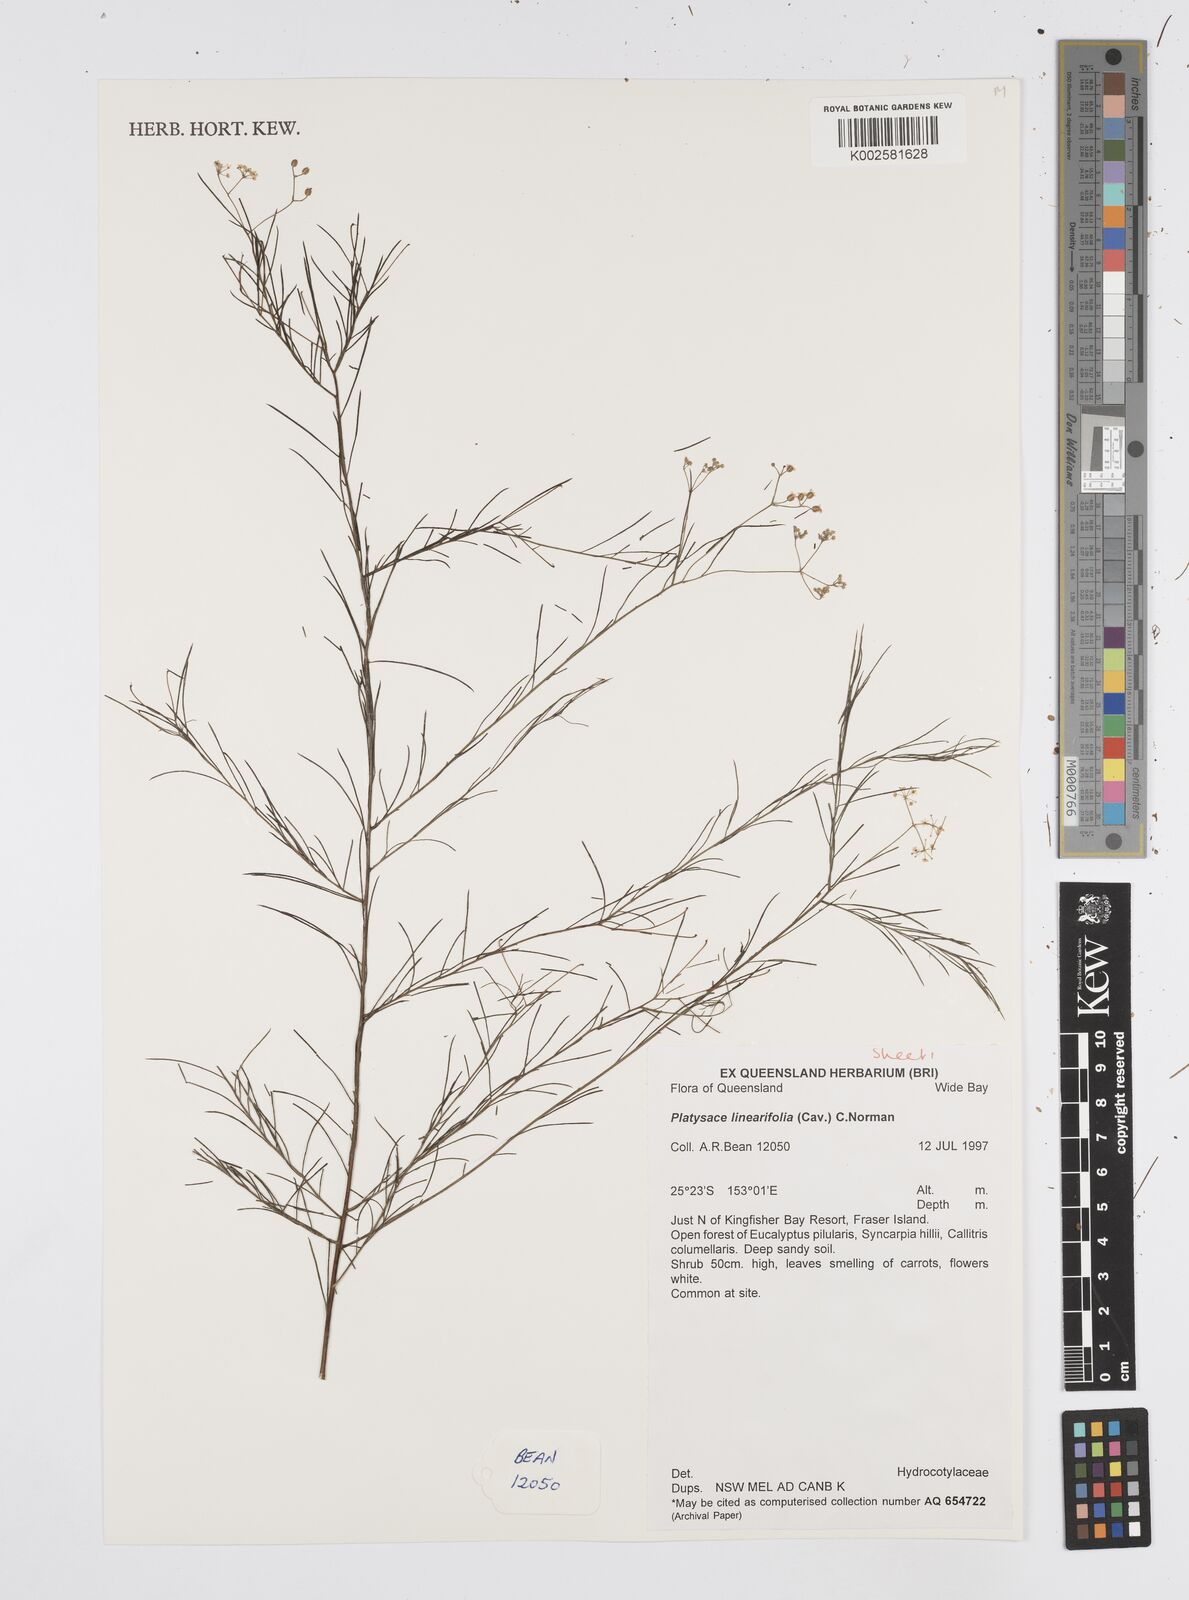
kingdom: Plantae
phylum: Tracheophyta
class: Magnoliopsida
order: Apiales
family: Apiaceae
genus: Platysace
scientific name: Platysace linearifolia
